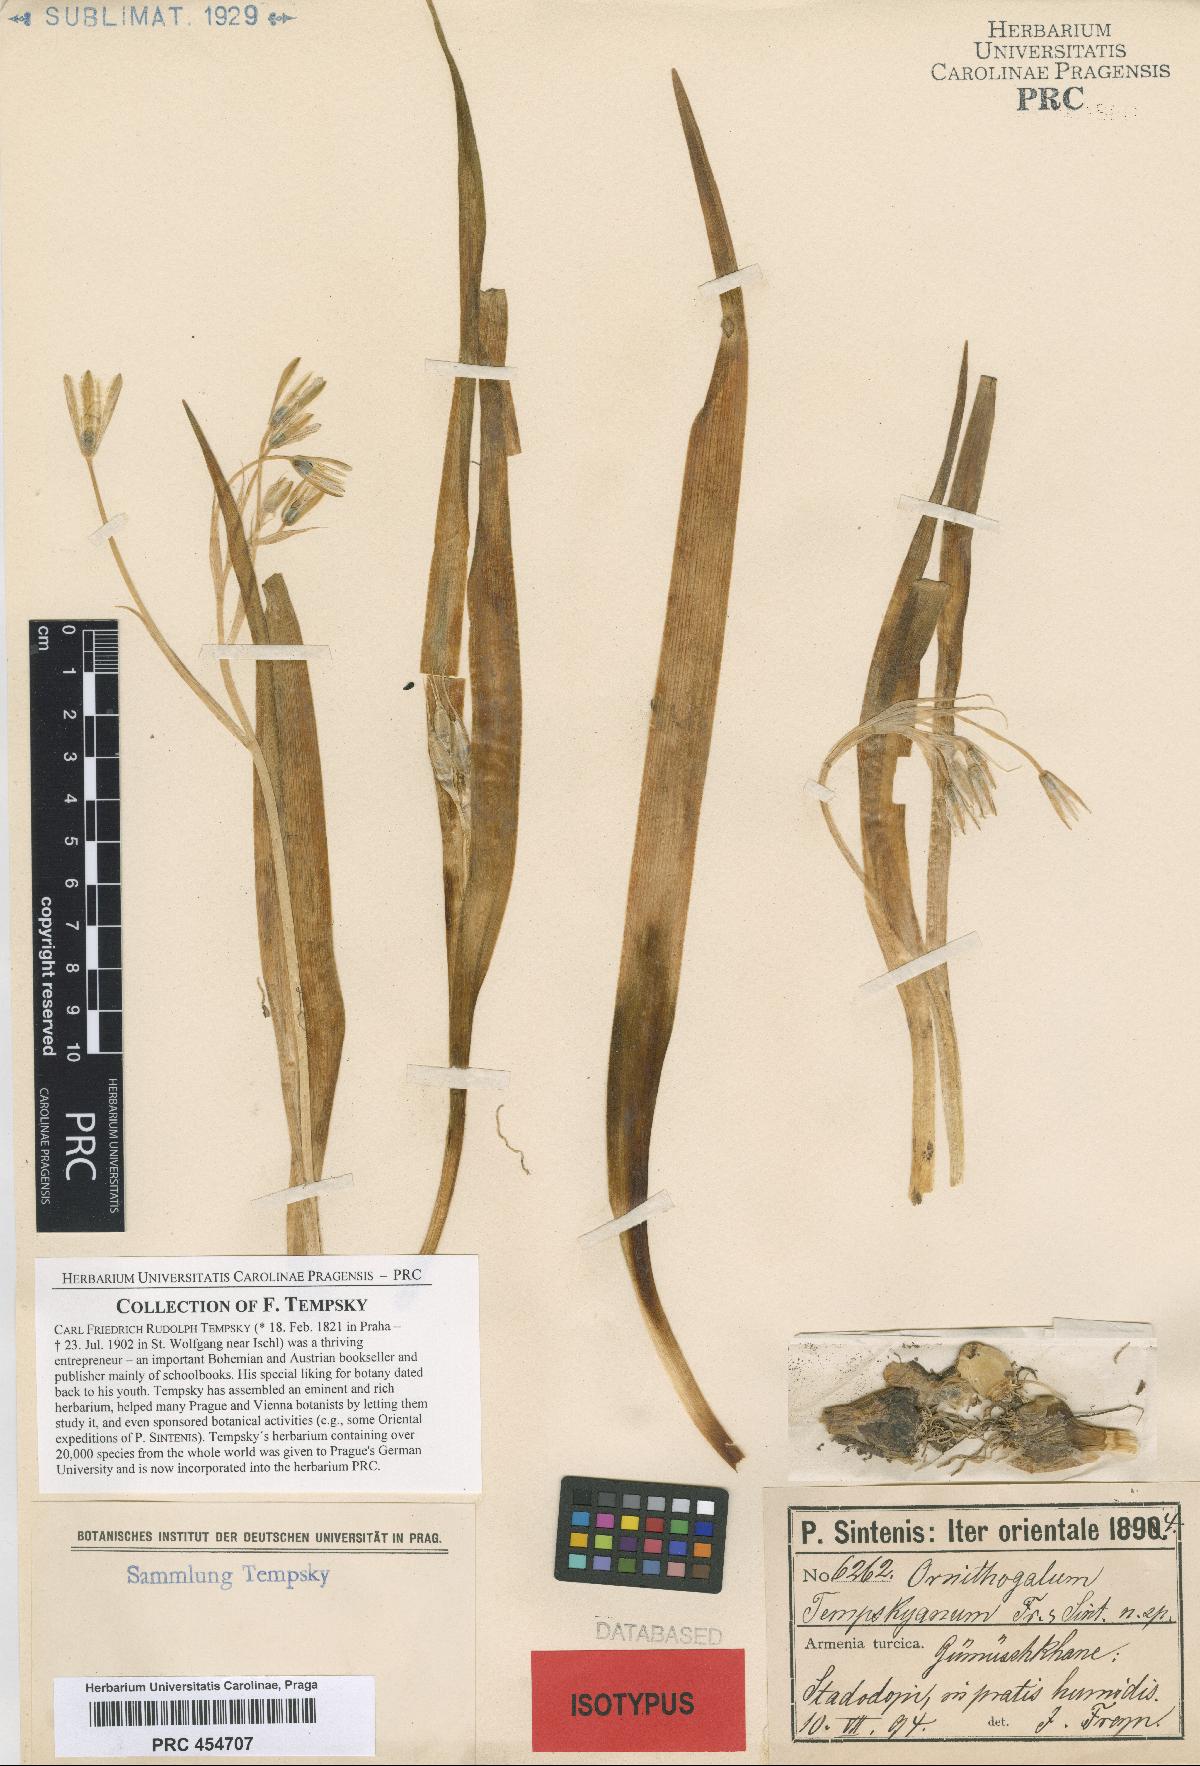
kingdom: Plantae
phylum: Tracheophyta
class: Liliopsida
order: Asparagales
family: Asparagaceae
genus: Ornithogalum
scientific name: Ornithogalum graciliflorum
